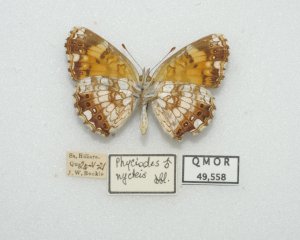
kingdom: Animalia
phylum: Arthropoda
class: Insecta
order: Lepidoptera
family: Nymphalidae
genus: Chlosyne
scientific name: Chlosyne nycteis
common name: Silvery Checkerspot
